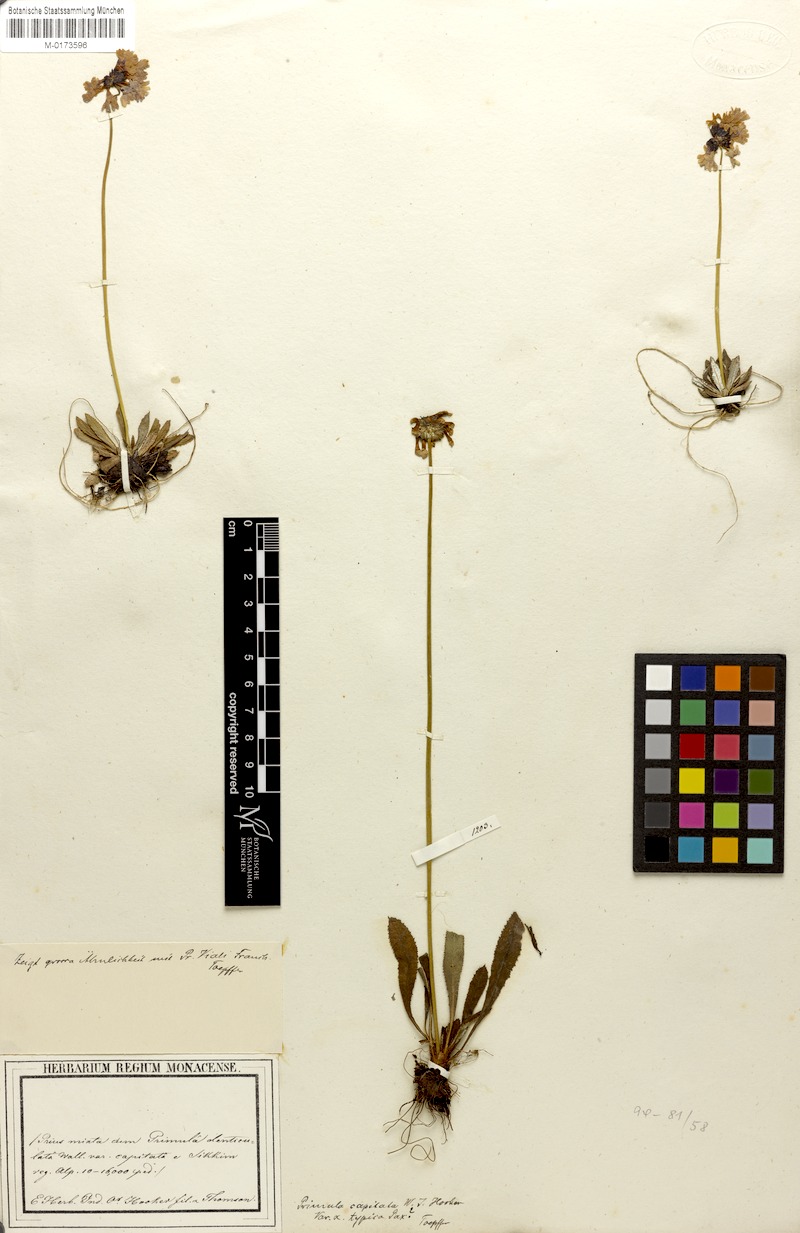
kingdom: Plantae
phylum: Tracheophyta
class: Magnoliopsida
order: Ericales
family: Primulaceae
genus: Primula
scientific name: Primula capitata
